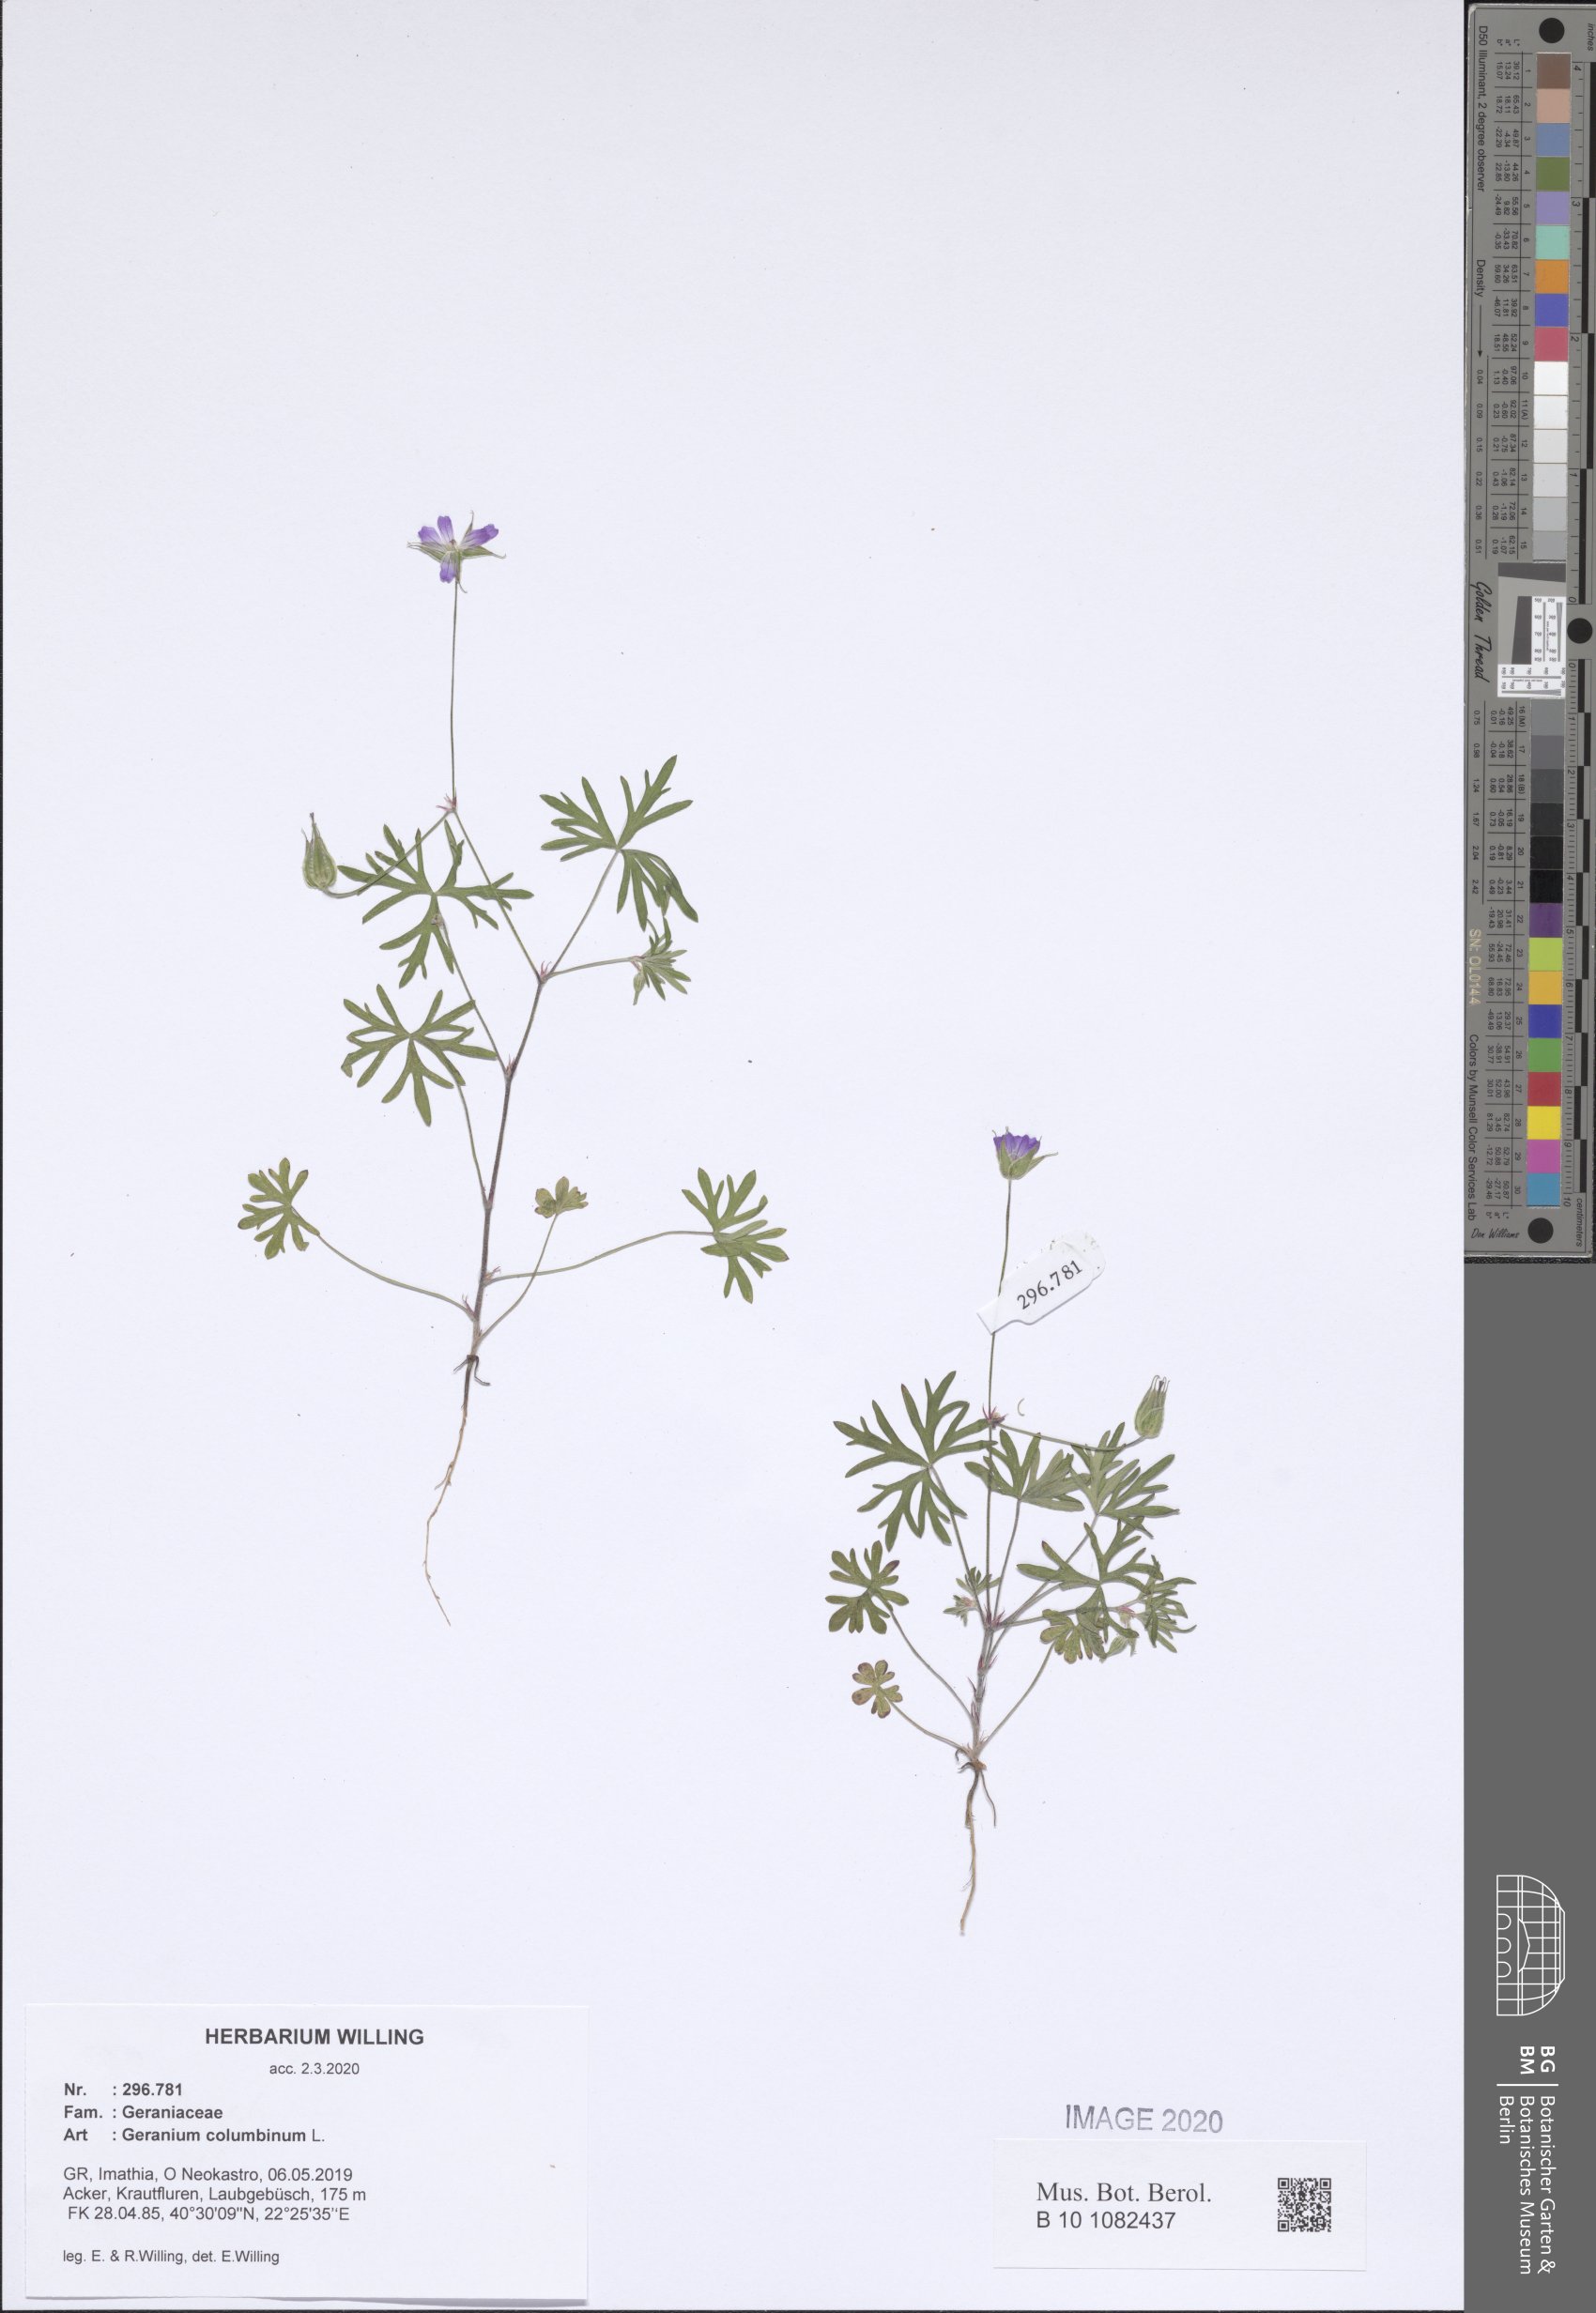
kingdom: Plantae
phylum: Tracheophyta
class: Magnoliopsida
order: Geraniales
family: Geraniaceae
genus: Geranium
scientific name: Geranium columbinum
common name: Long-stalked crane's-bill
